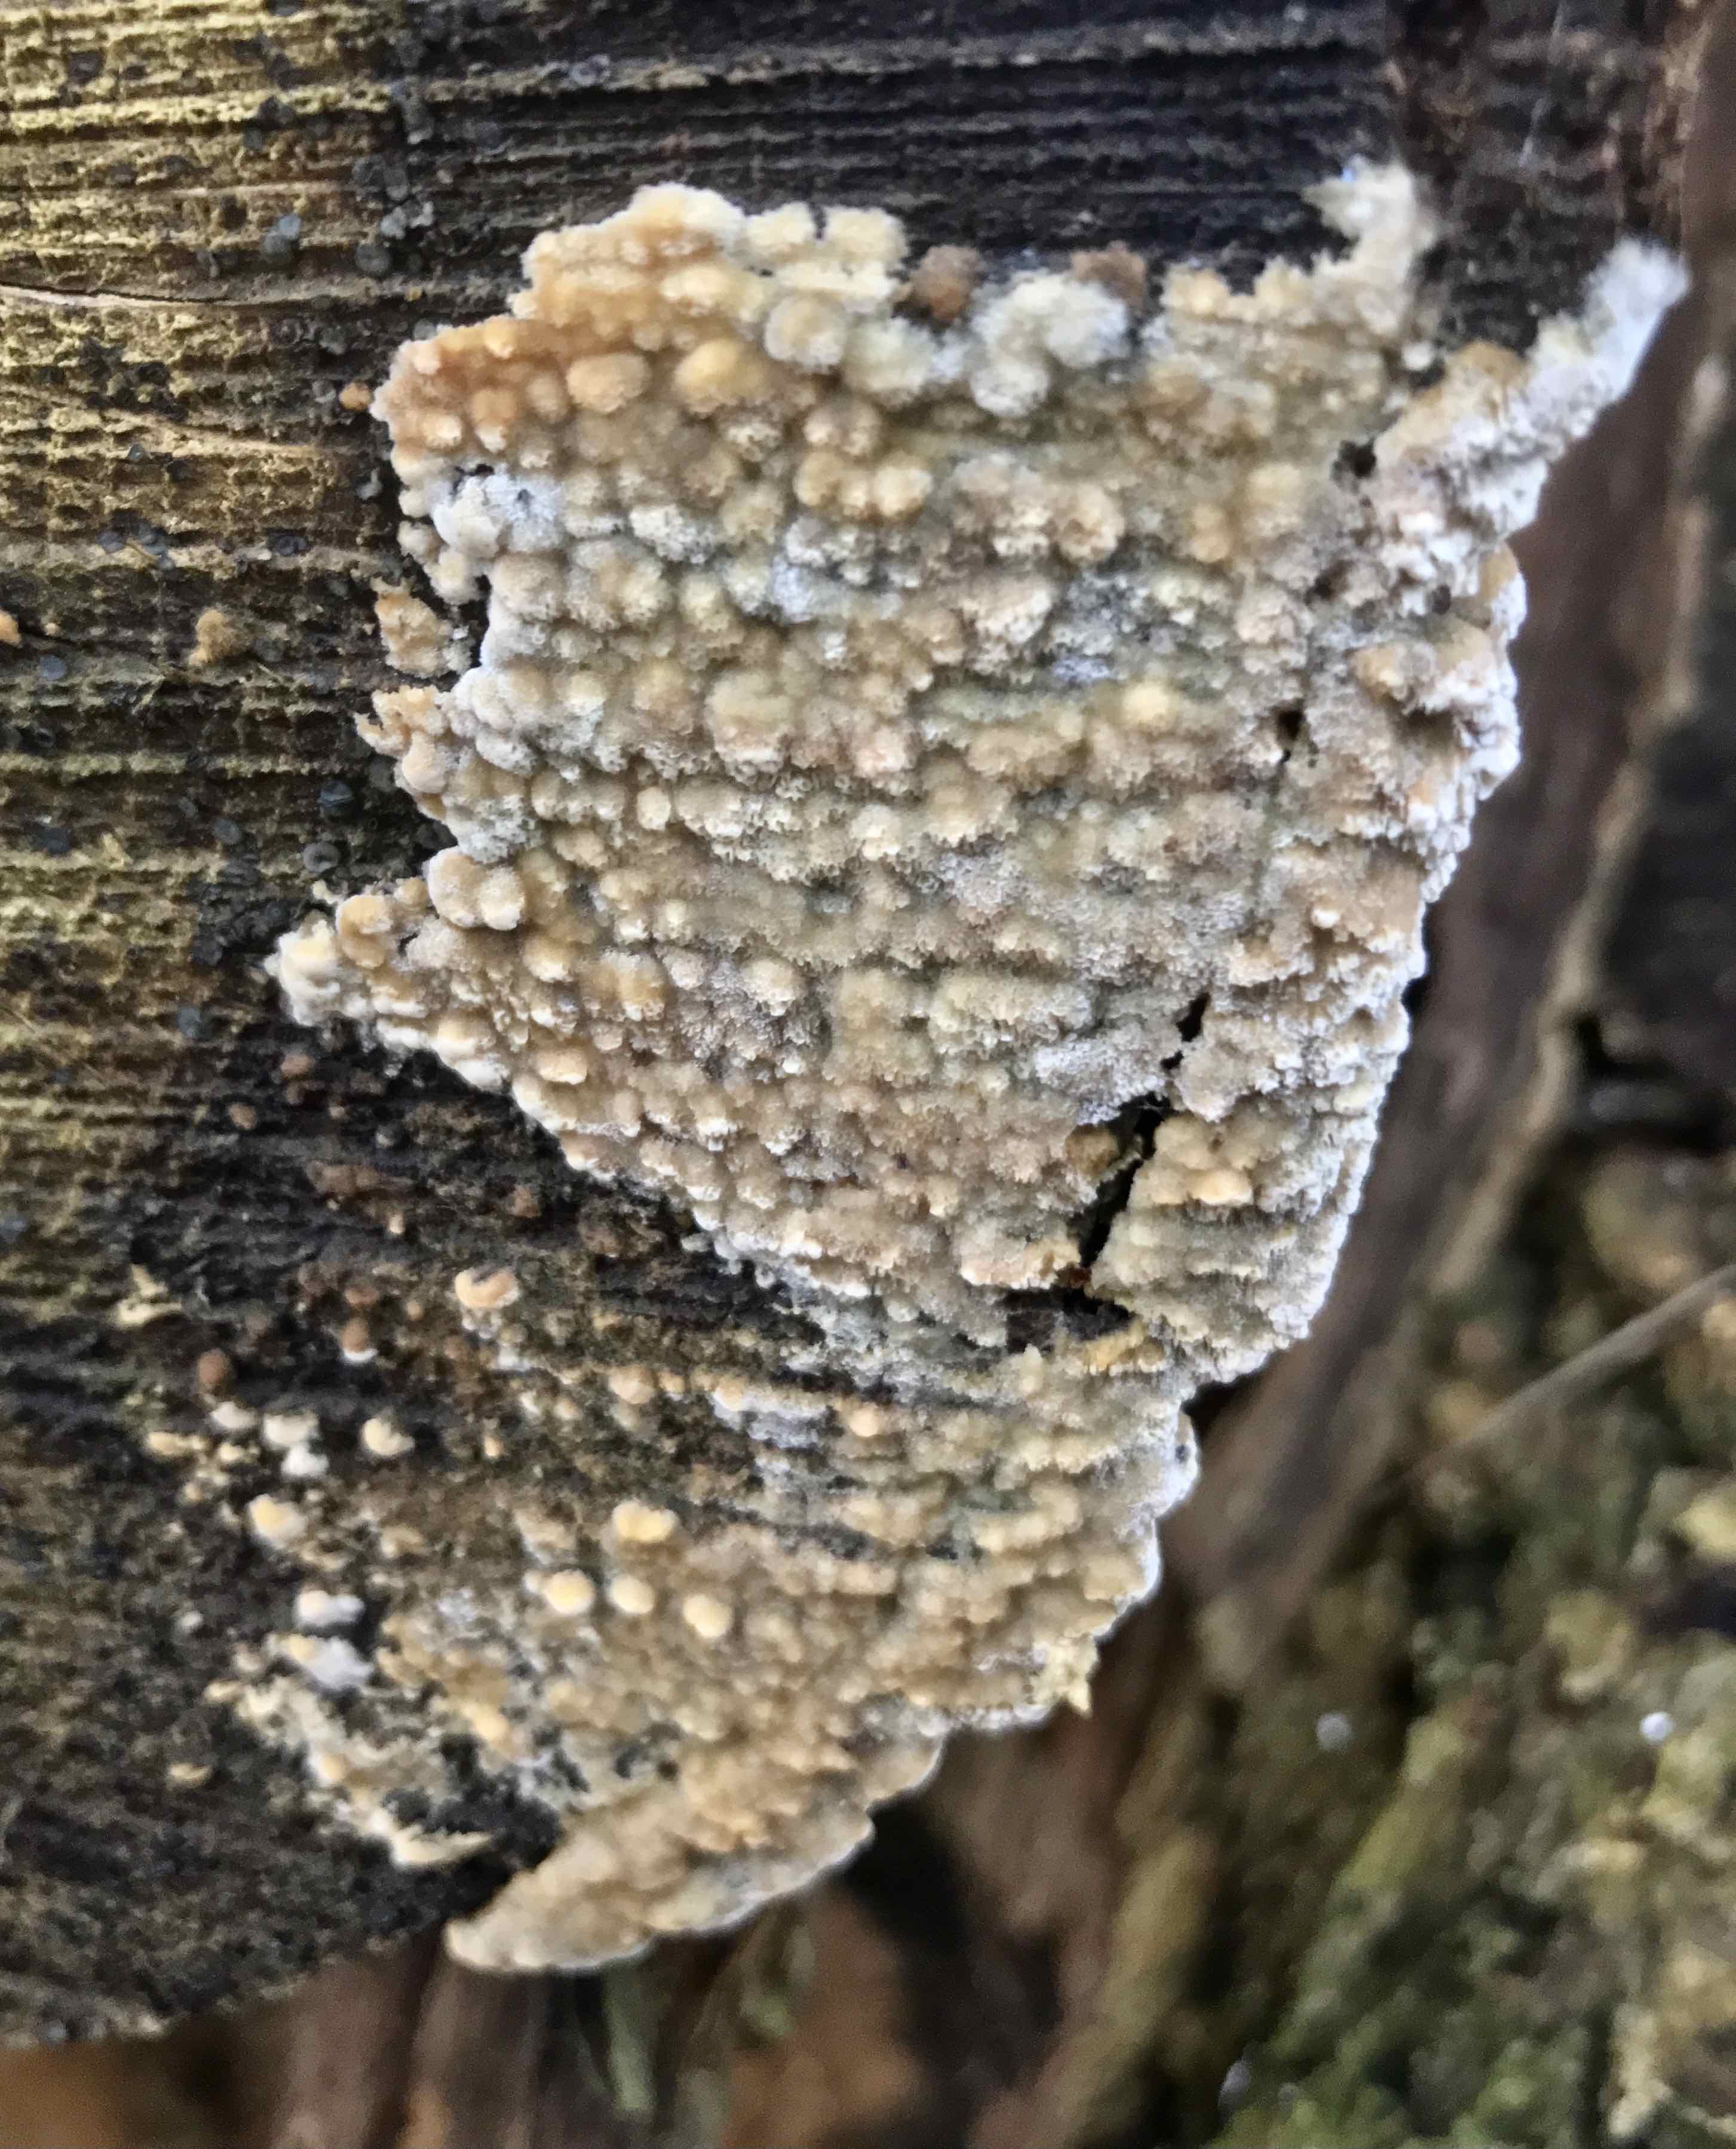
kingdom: Fungi
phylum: Basidiomycota
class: Agaricomycetes
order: Agaricales
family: Physalacriaceae
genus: Cylindrobasidium
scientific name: Cylindrobasidium evolvens
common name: sprækkehinde
